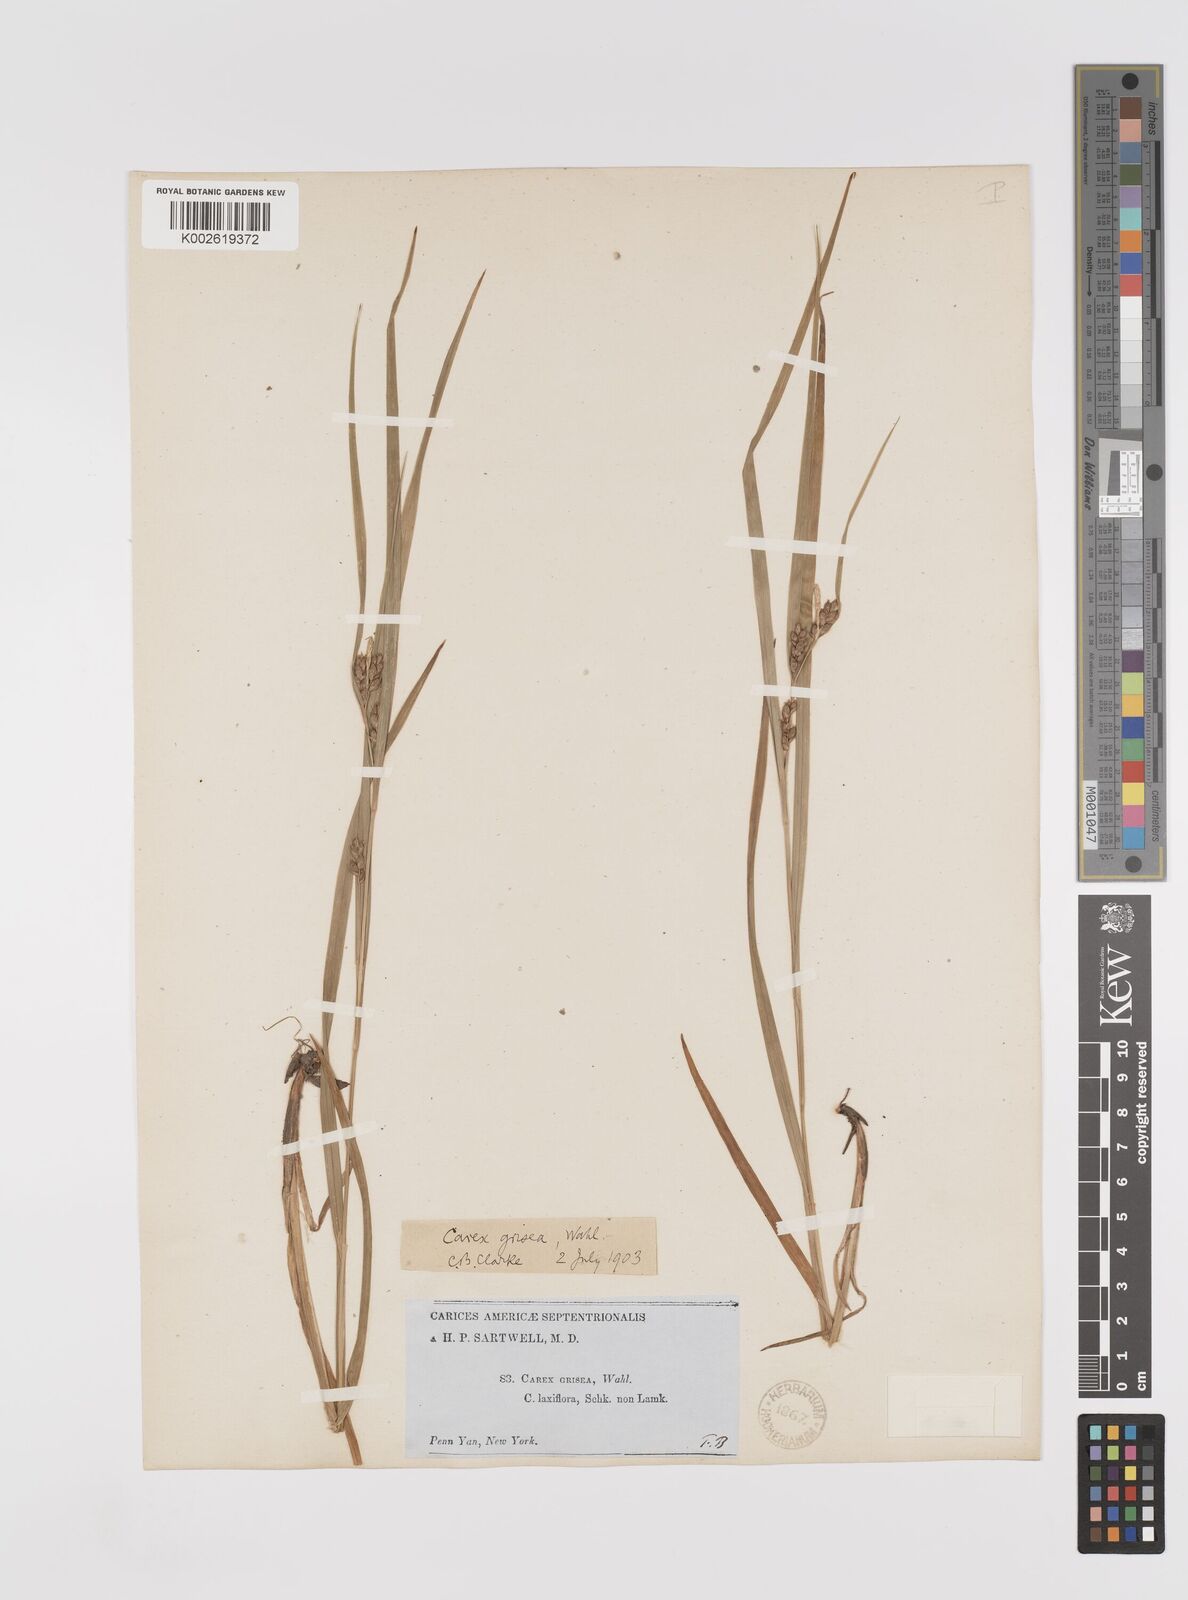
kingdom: Plantae
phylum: Tracheophyta
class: Liliopsida
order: Poales
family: Cyperaceae
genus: Carex
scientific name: Carex grisea
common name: Eastern narrow-leaved sedge
